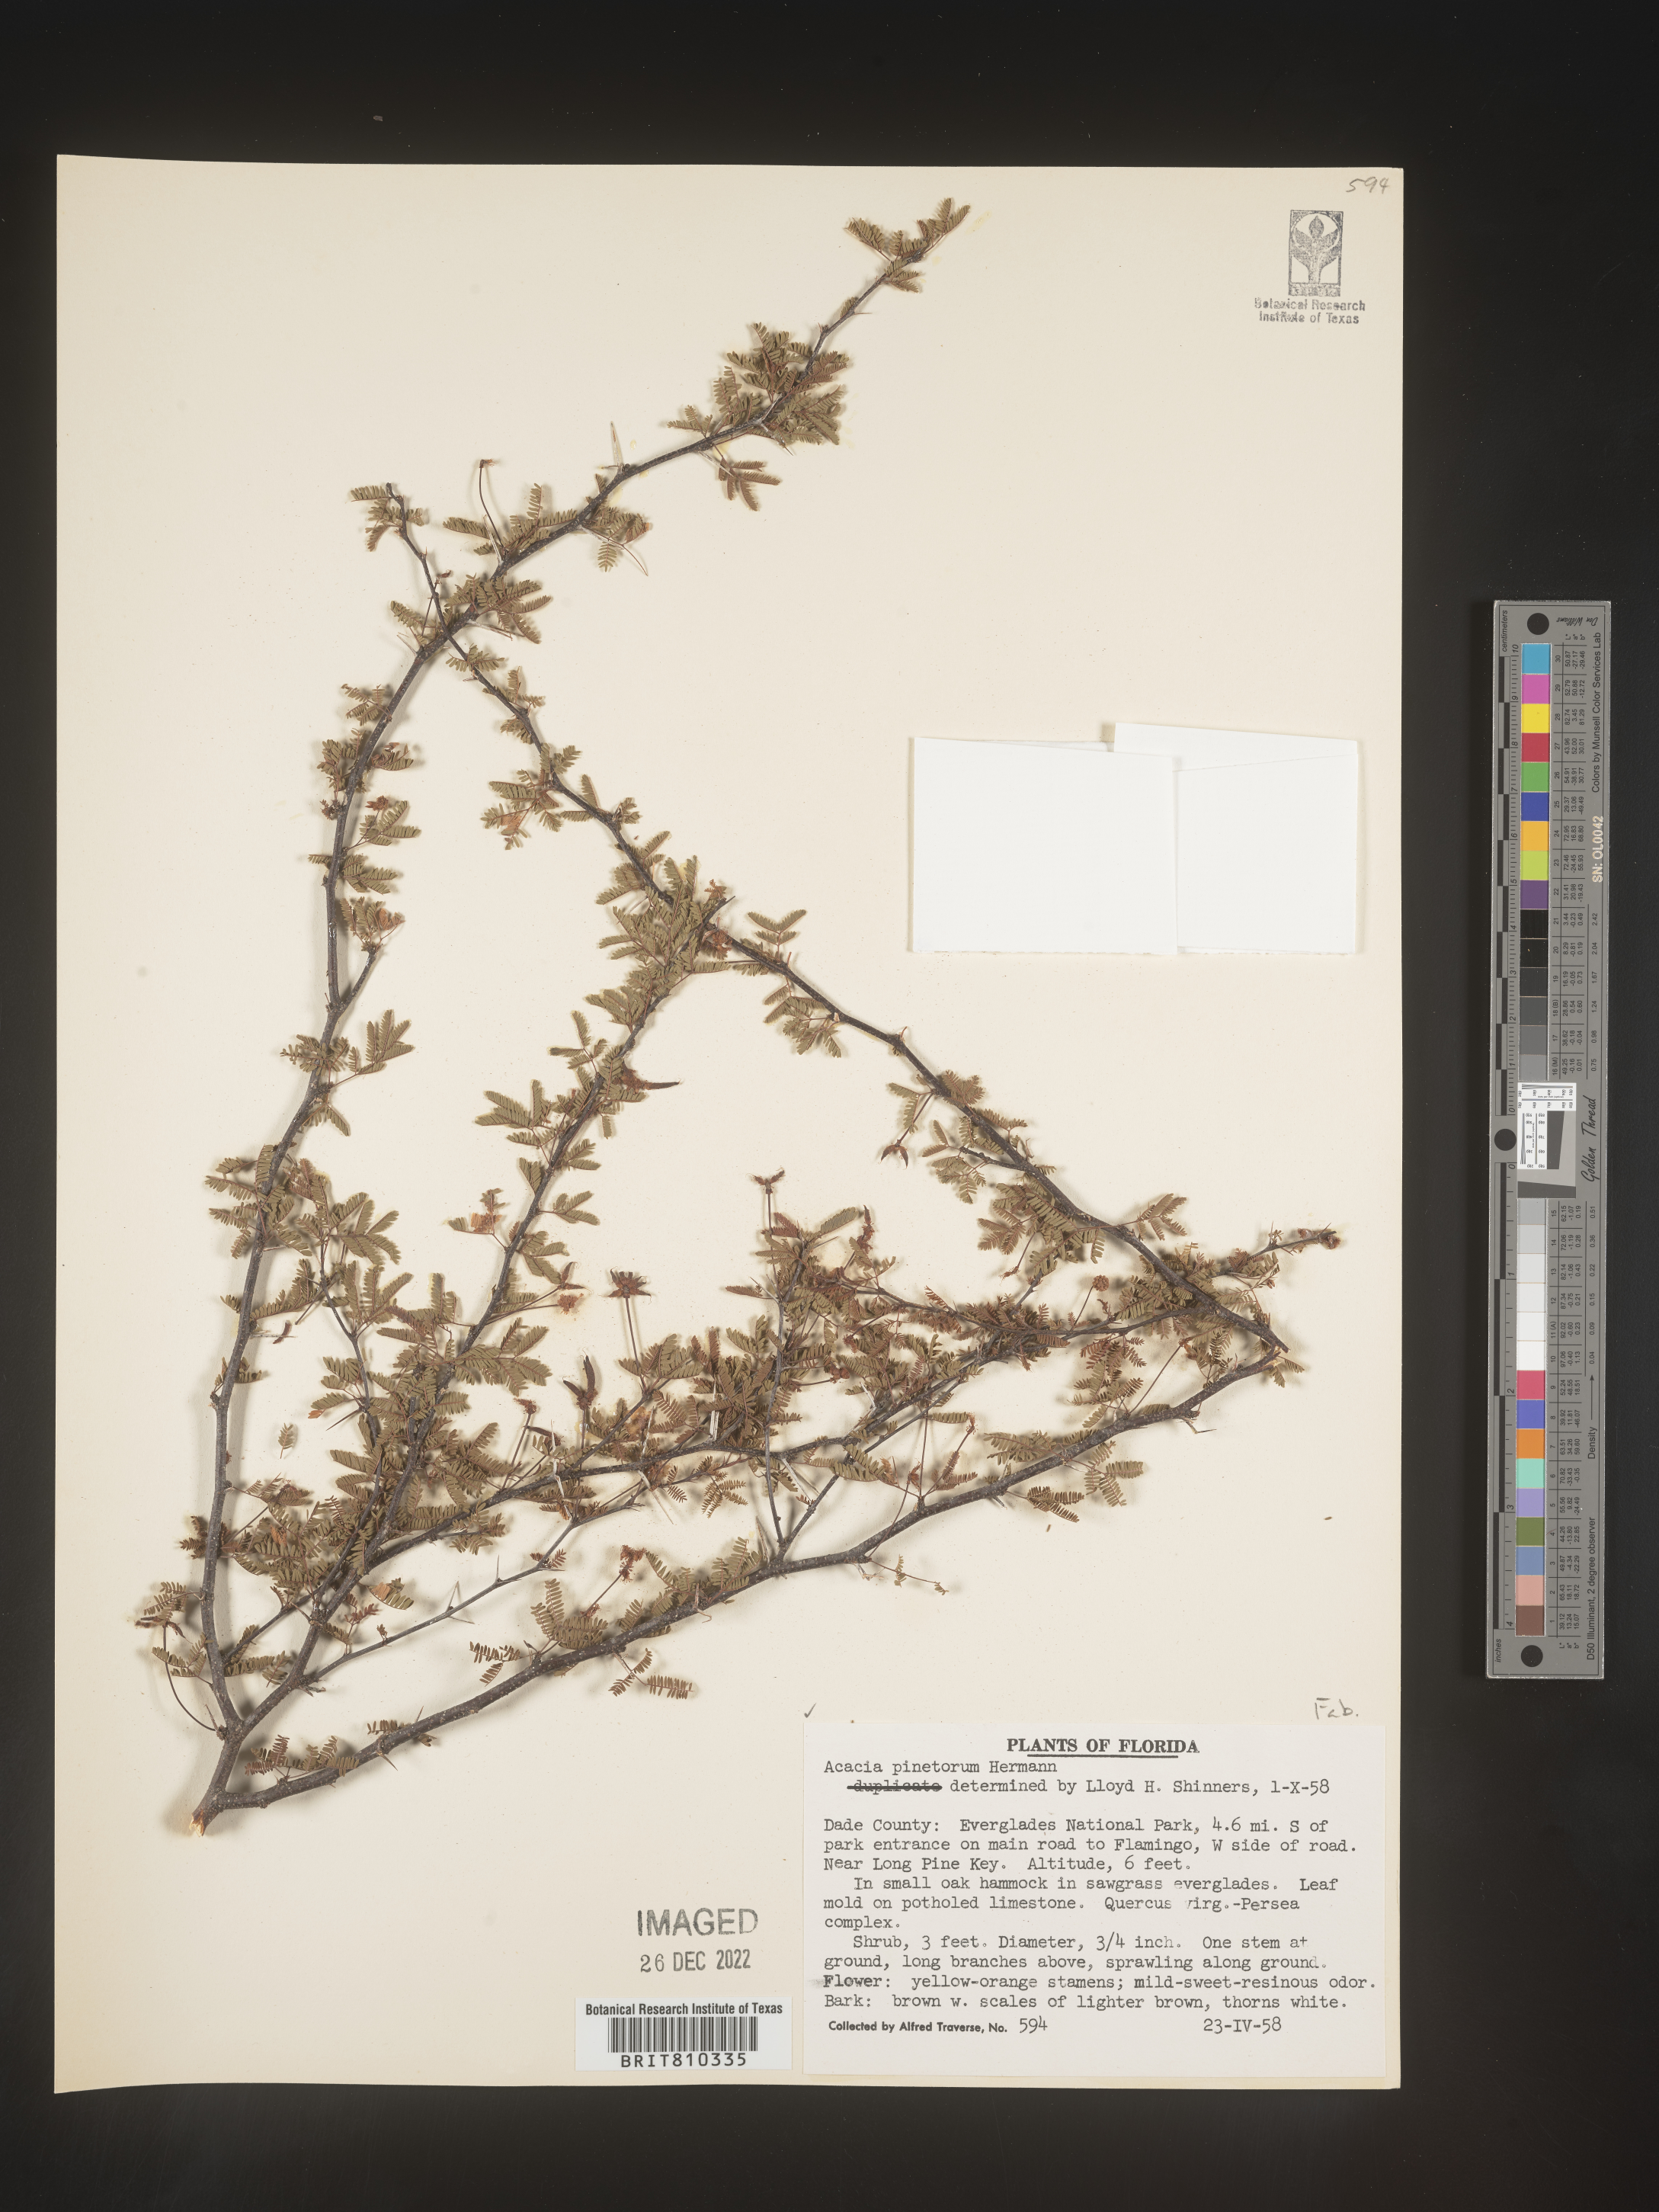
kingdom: Plantae
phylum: Tracheophyta
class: Magnoliopsida
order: Fabales
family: Fabaceae
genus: Acacia
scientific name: Acacia
